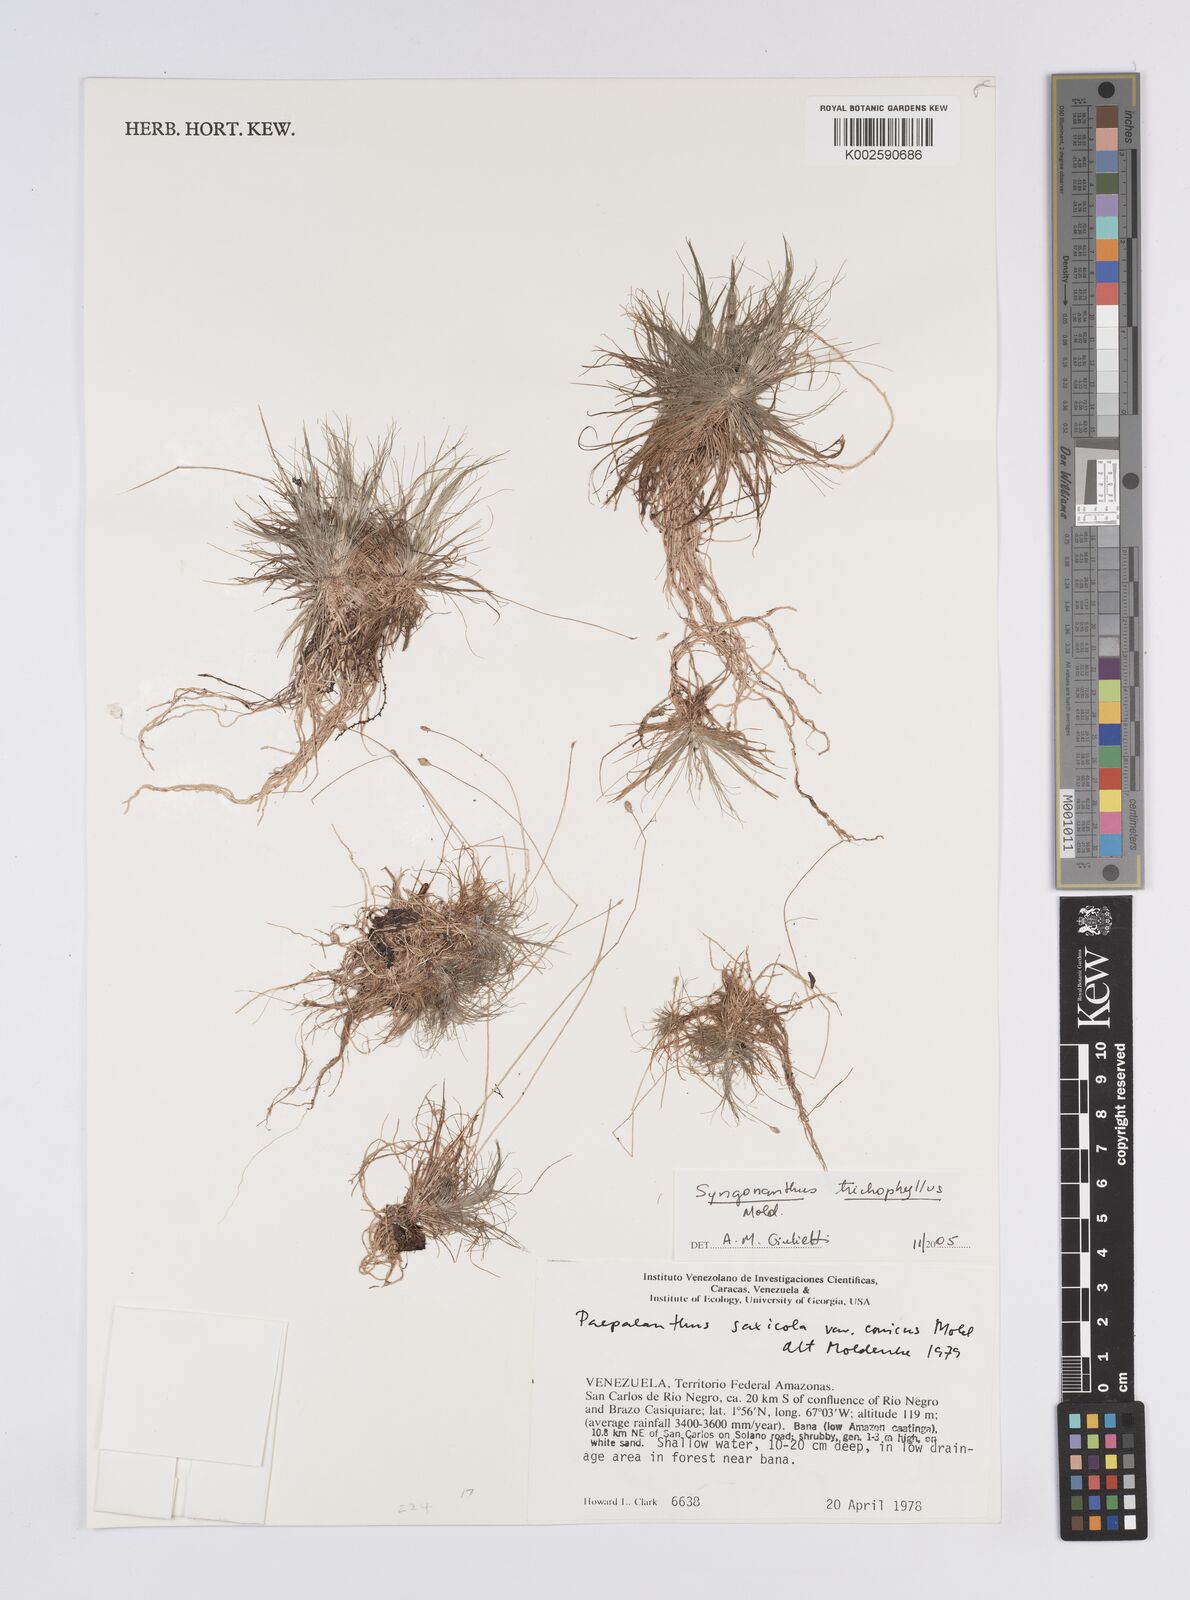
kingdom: Plantae
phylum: Tracheophyta
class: Liliopsida
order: Poales
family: Eriocaulaceae
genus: Syngonanthus
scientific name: Syngonanthus trichophyllus
